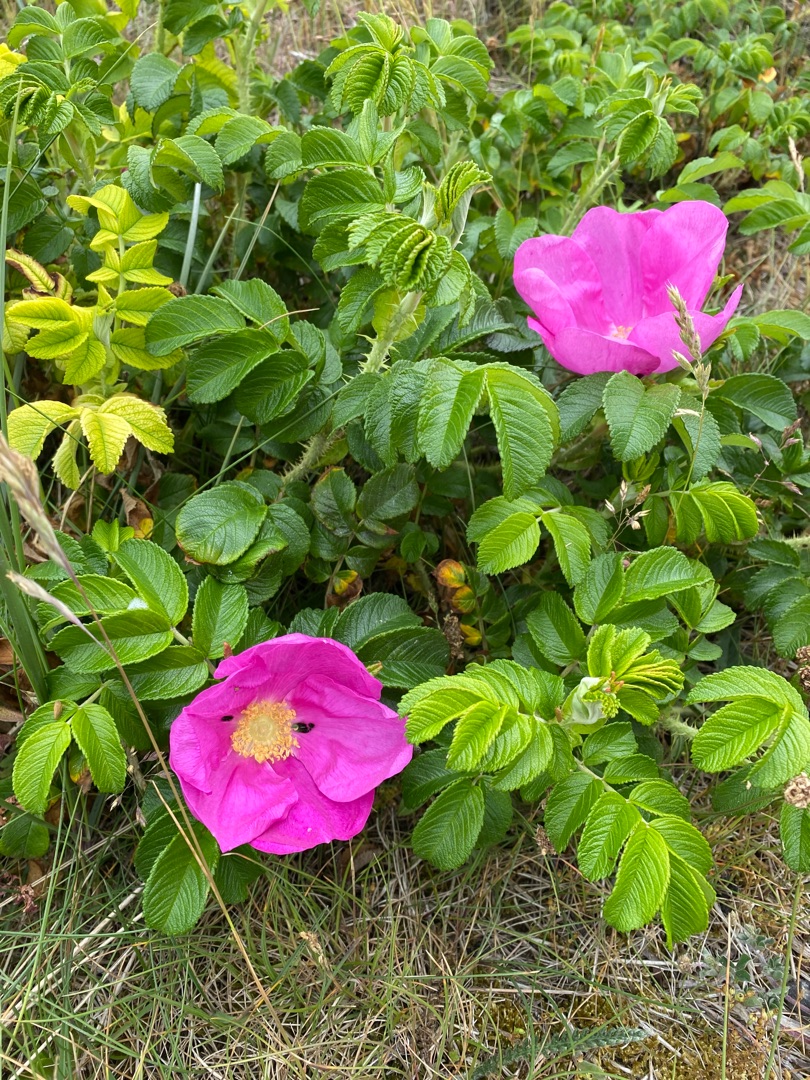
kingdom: Plantae
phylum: Tracheophyta
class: Magnoliopsida
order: Rosales
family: Rosaceae
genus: Rosa
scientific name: Rosa rugosa
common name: Rynket rose
